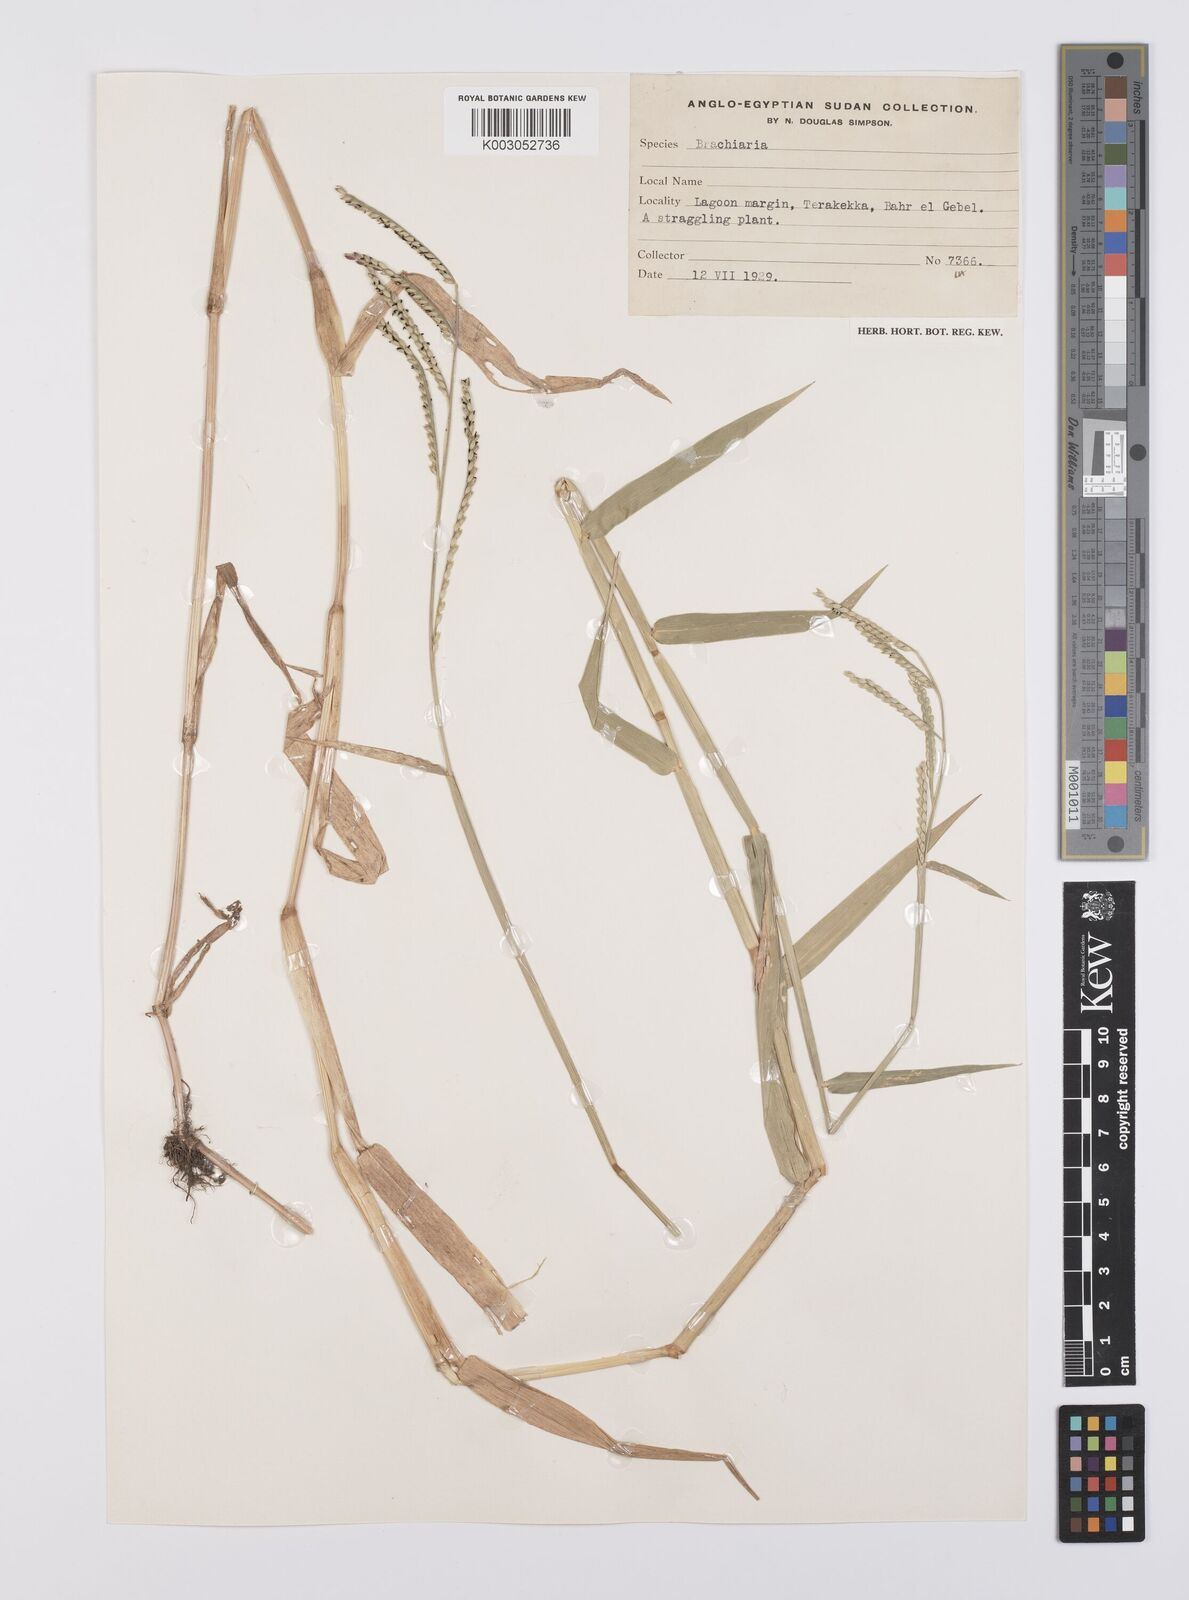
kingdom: Plantae
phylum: Tracheophyta
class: Liliopsida
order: Poales
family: Poaceae
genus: Urochloa
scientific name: Urochloa arrecta
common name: African signalgrass
